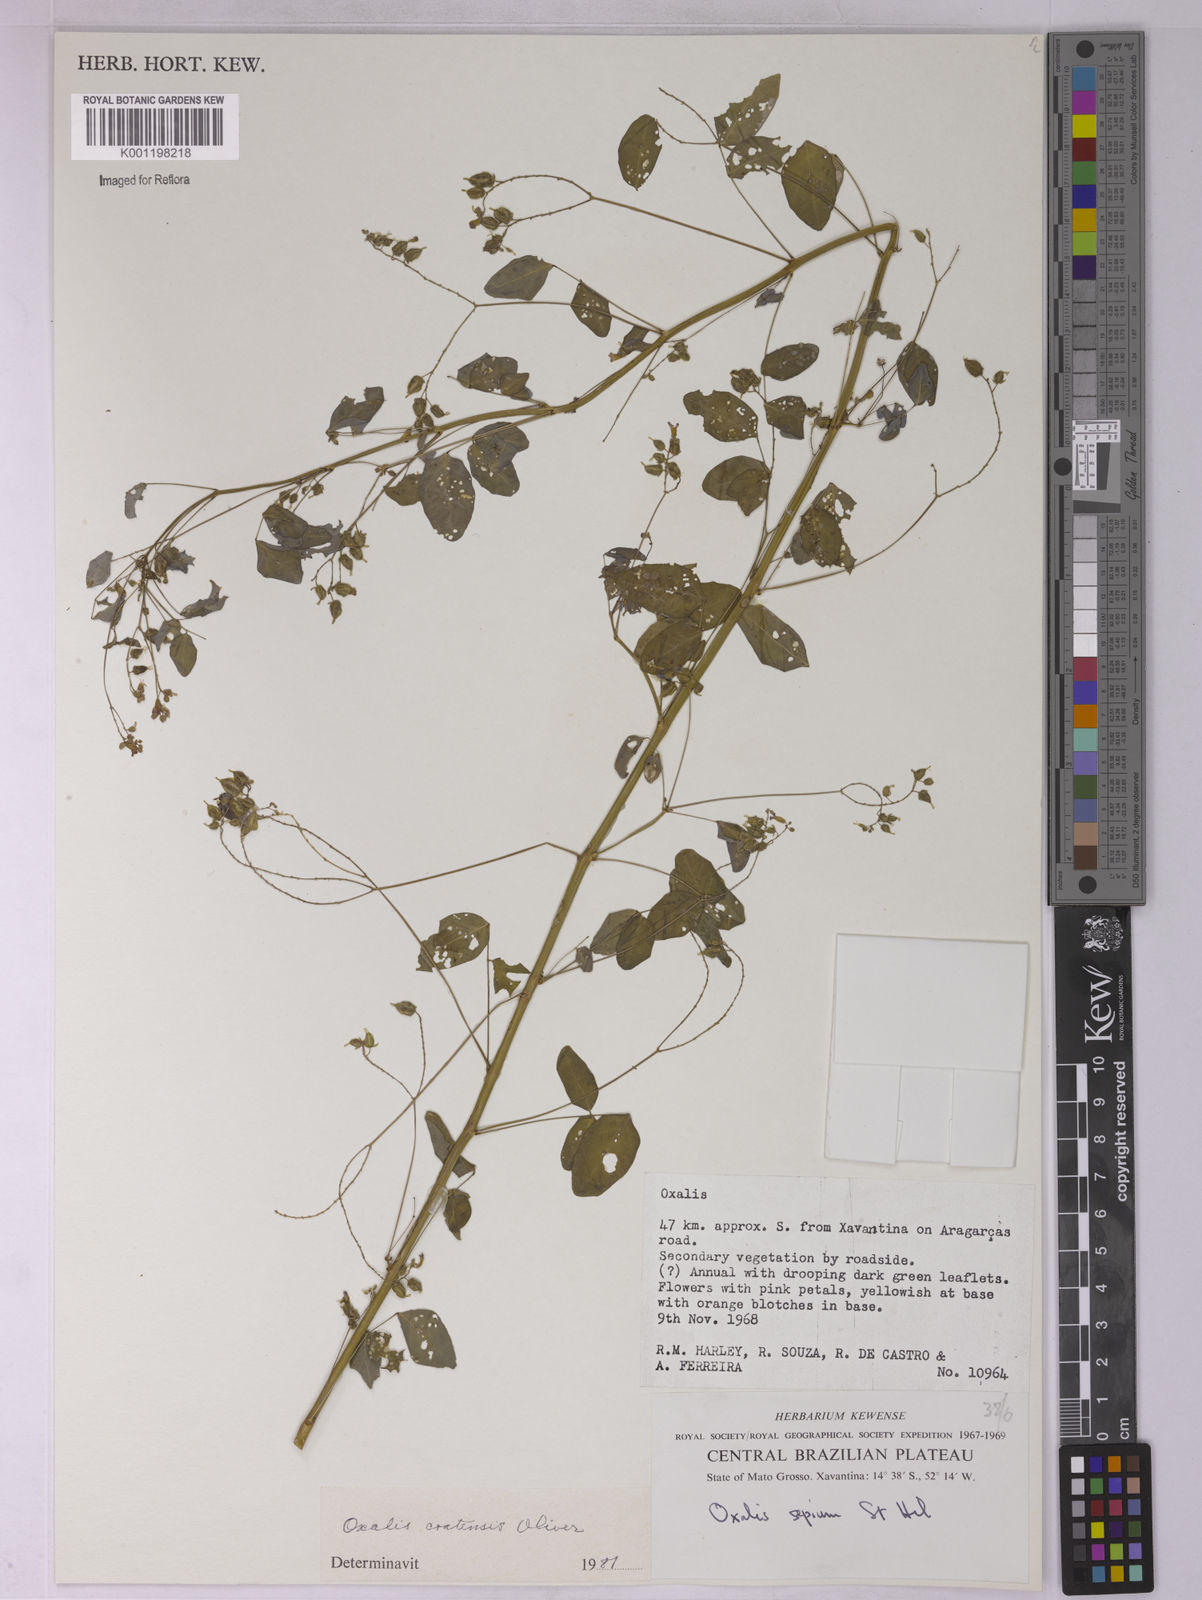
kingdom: Plantae
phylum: Tracheophyta
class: Magnoliopsida
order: Oxalidales
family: Oxalidaceae
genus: Oxalis
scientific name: Oxalis cratensis
